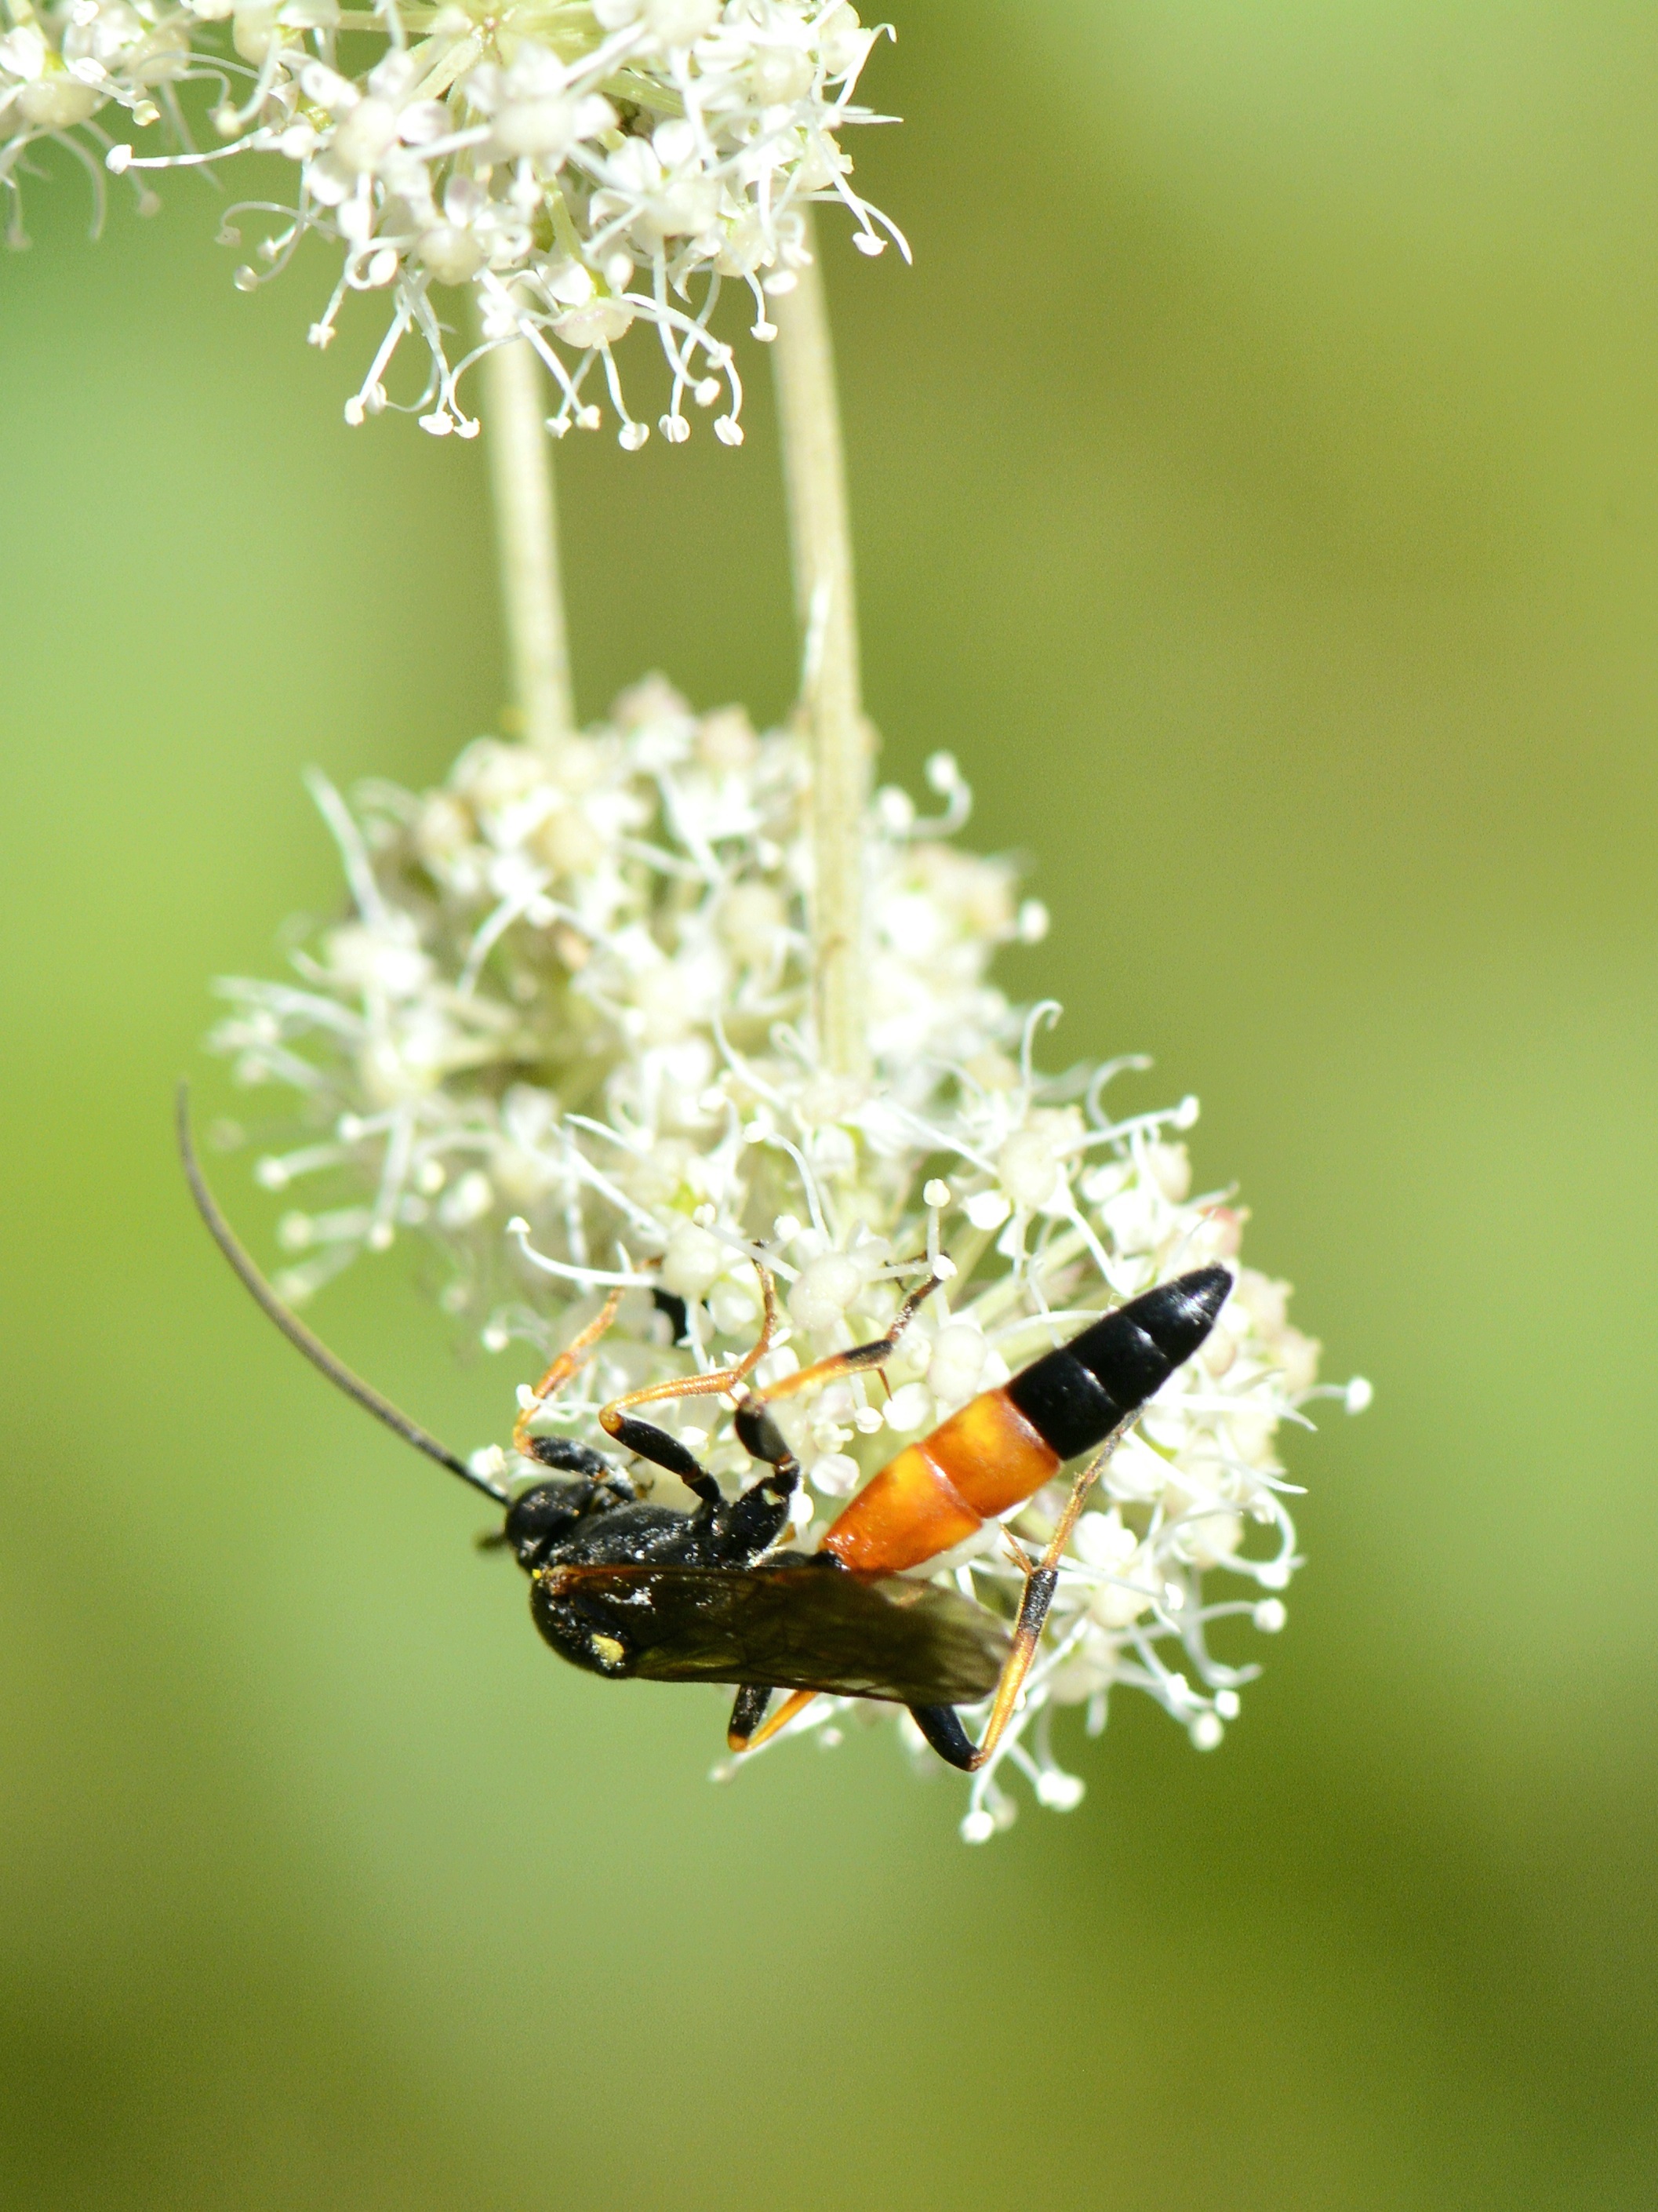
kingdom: Animalia
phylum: Arthropoda
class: Insecta
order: Hymenoptera
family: Ichneumonidae
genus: Ichneumon
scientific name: Ichneumon primatorius
